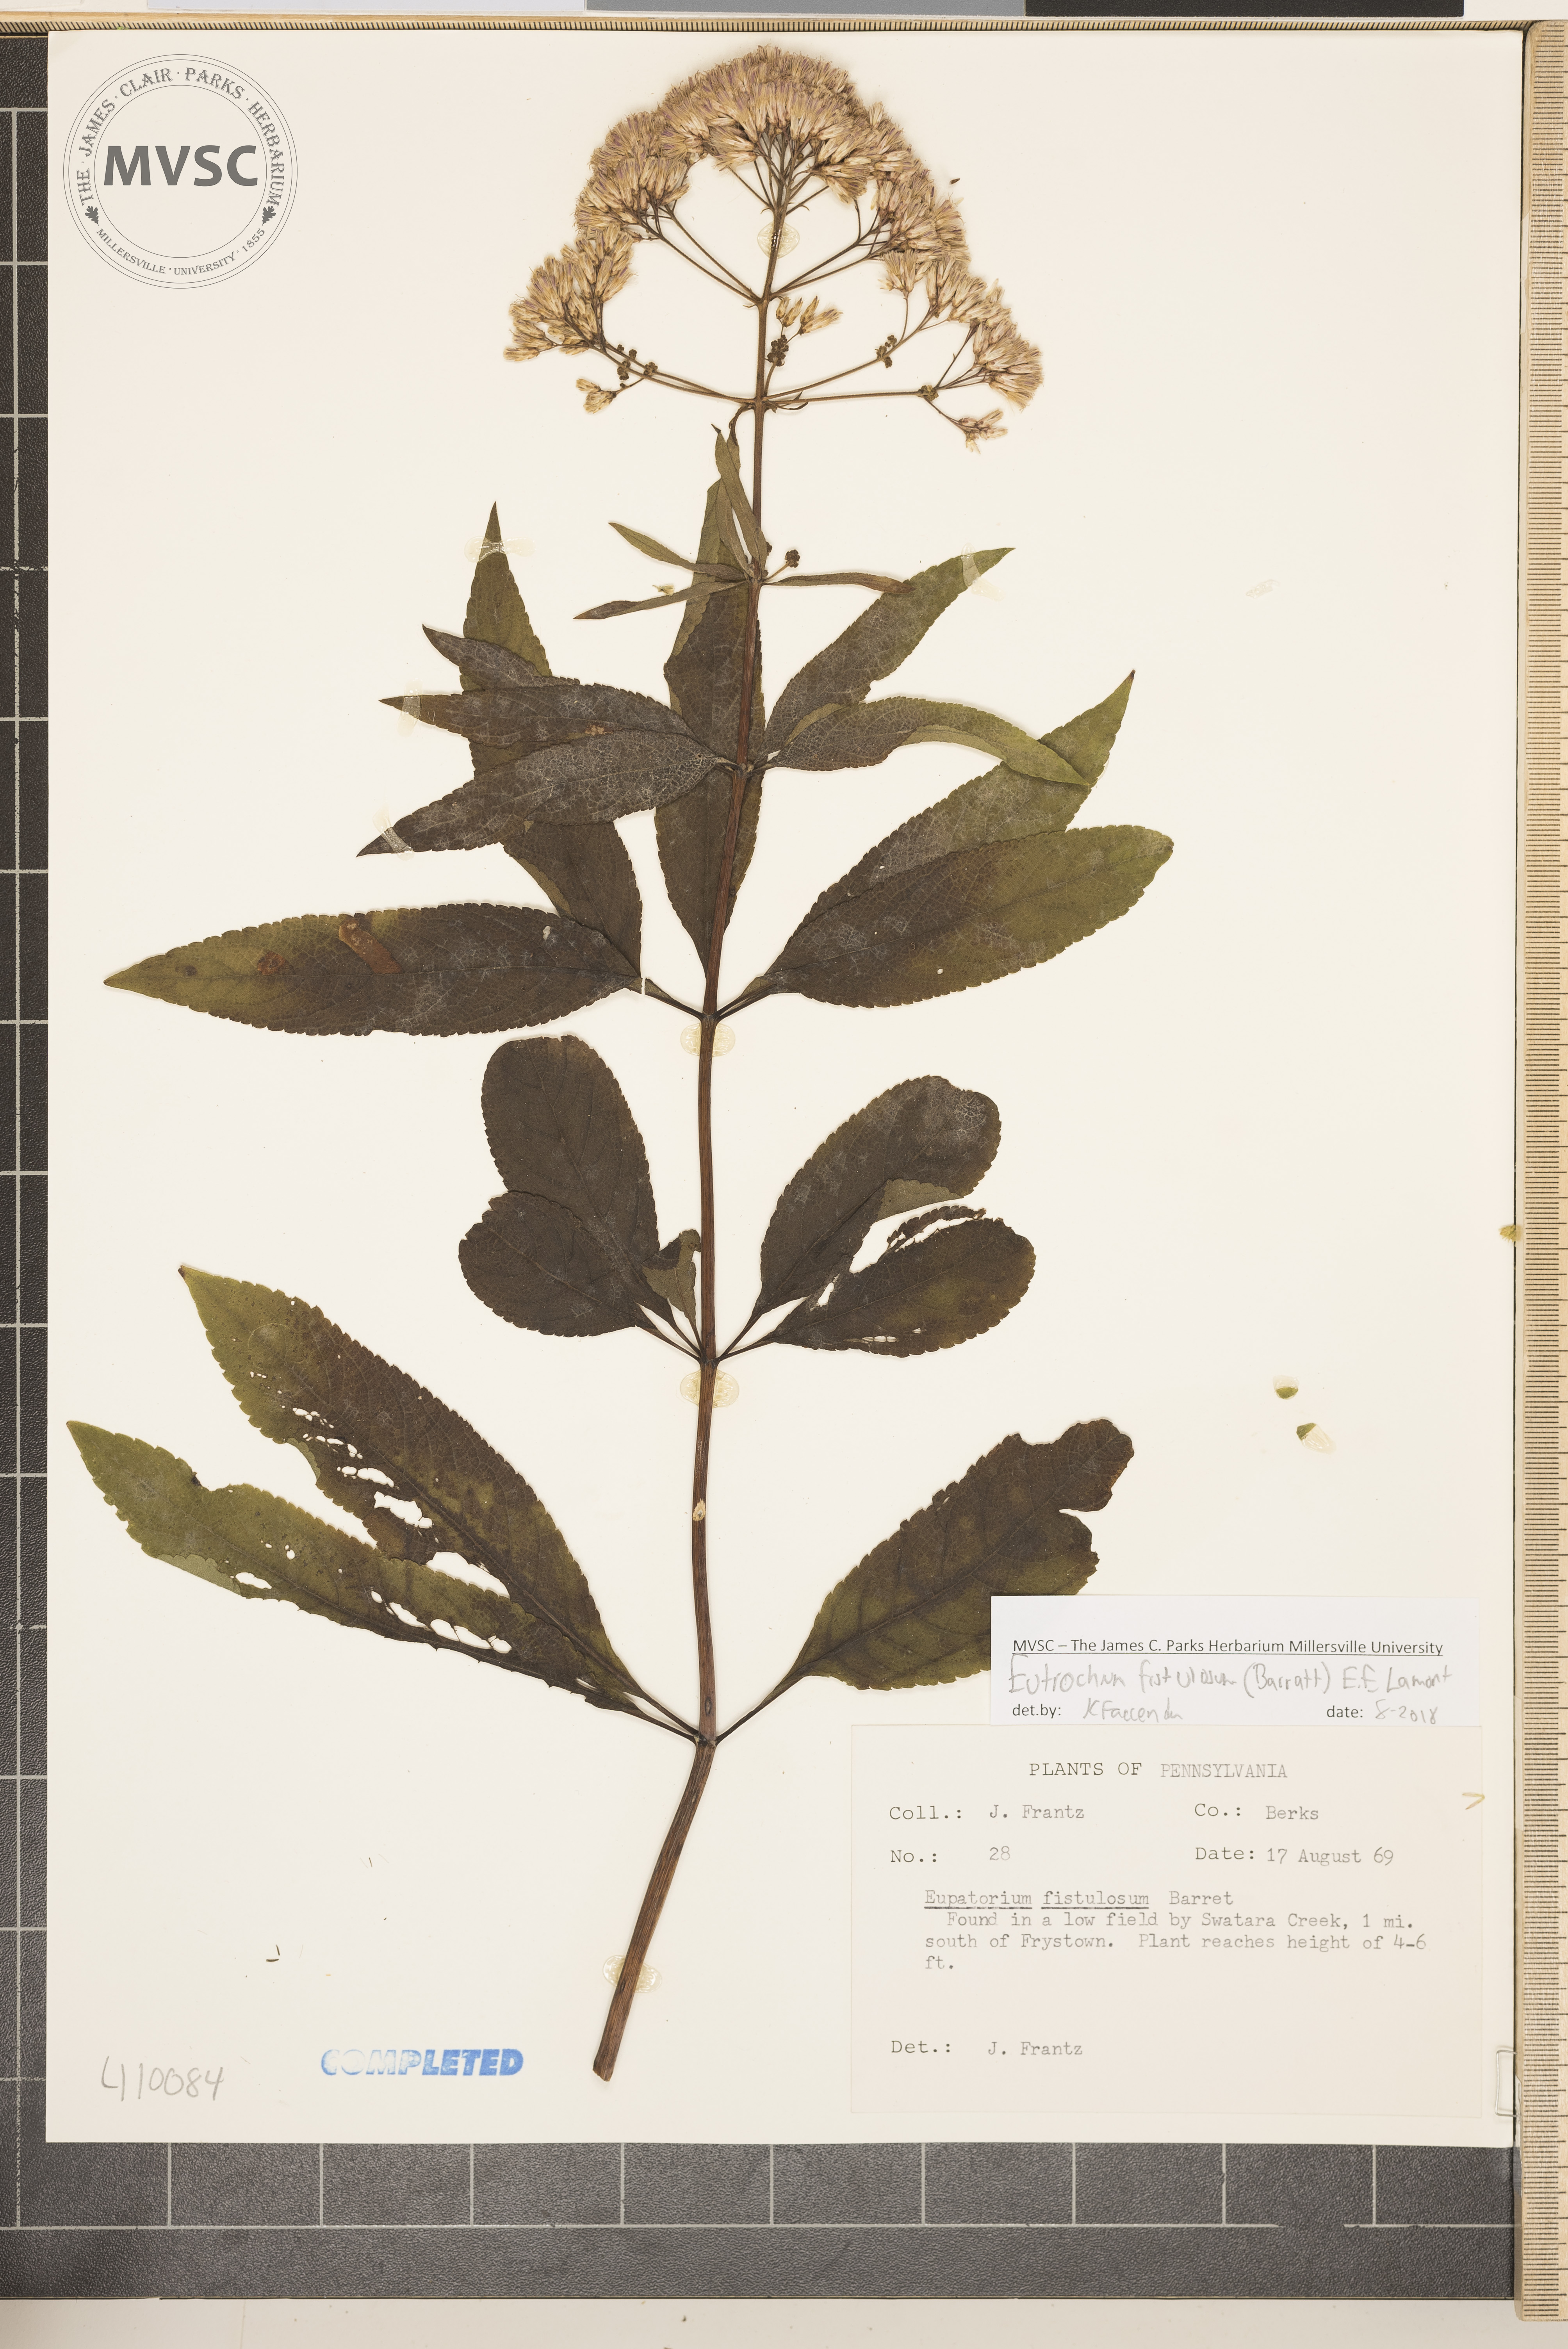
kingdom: Plantae
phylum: Tracheophyta
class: Magnoliopsida
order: Asterales
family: Asteraceae
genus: Eutrochium
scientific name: Eutrochium fistulosum
